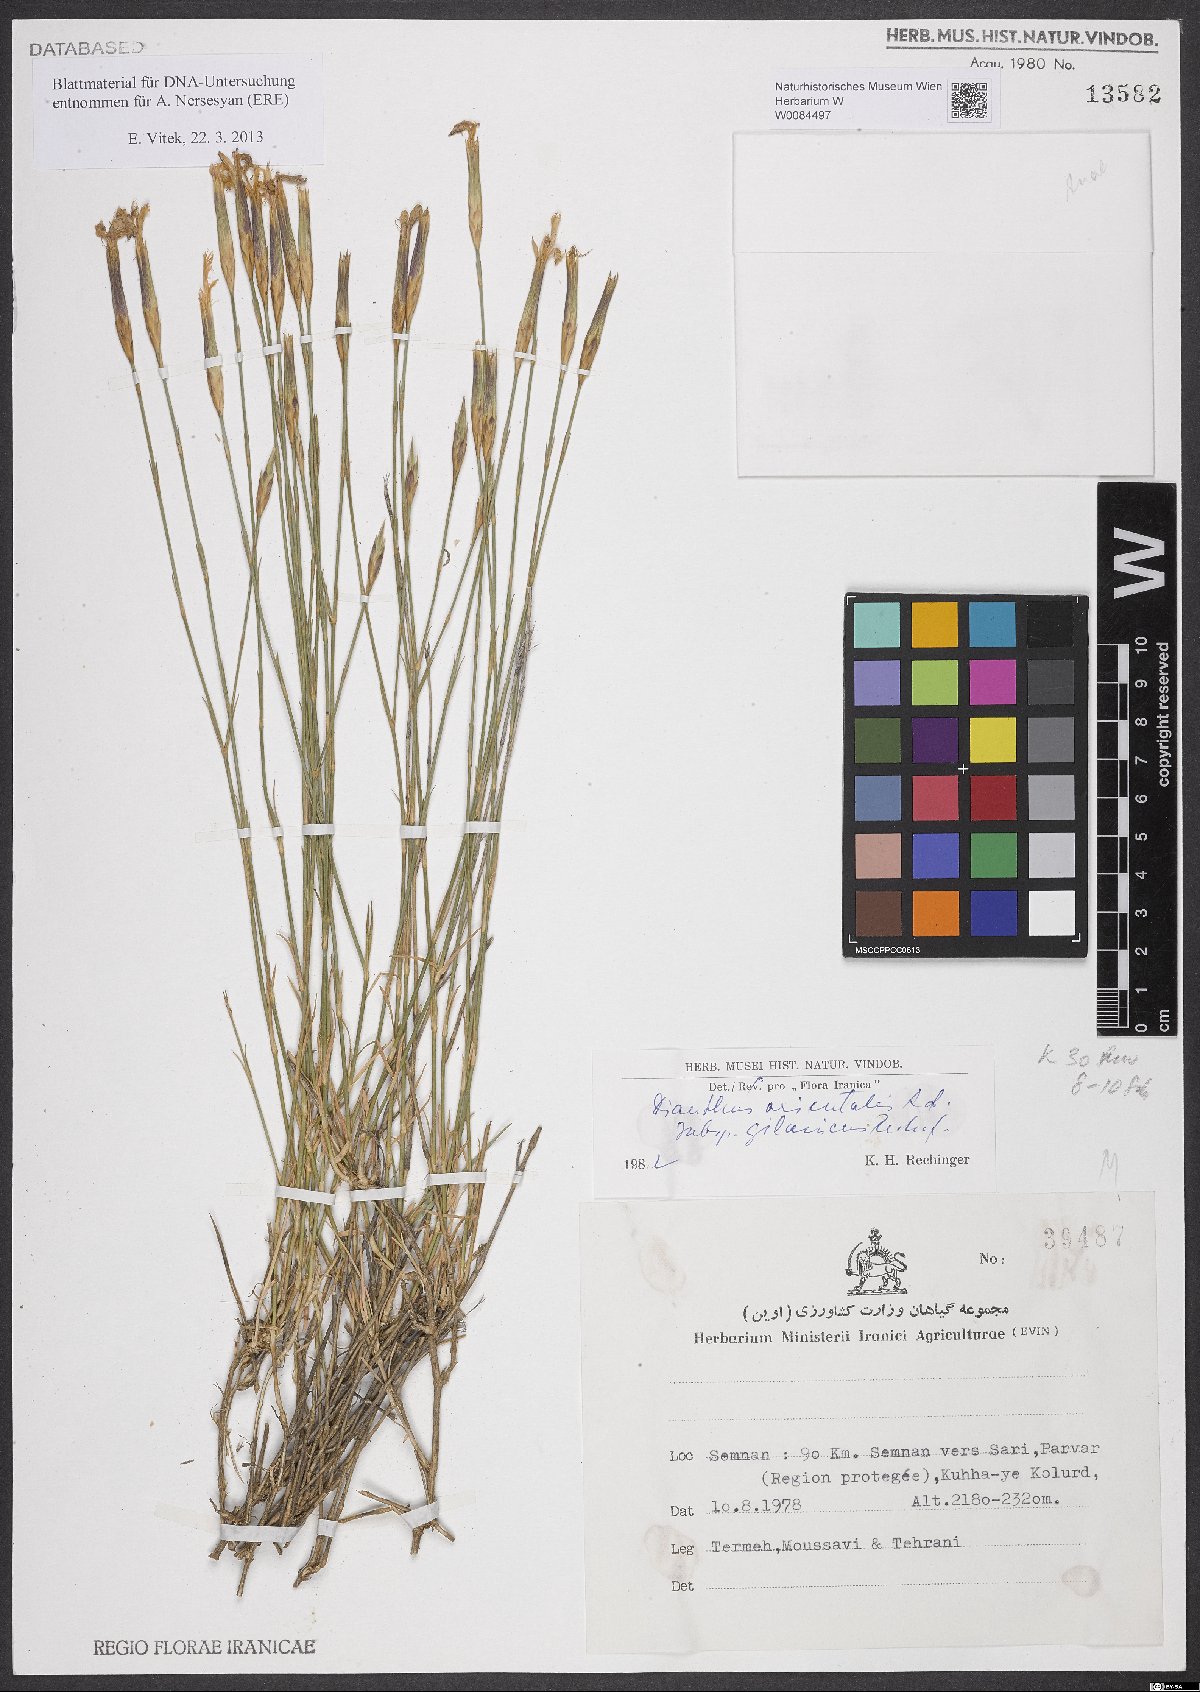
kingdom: Plantae
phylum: Tracheophyta
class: Magnoliopsida
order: Caryophyllales
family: Caryophyllaceae
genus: Dianthus
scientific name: Dianthus orientalis
